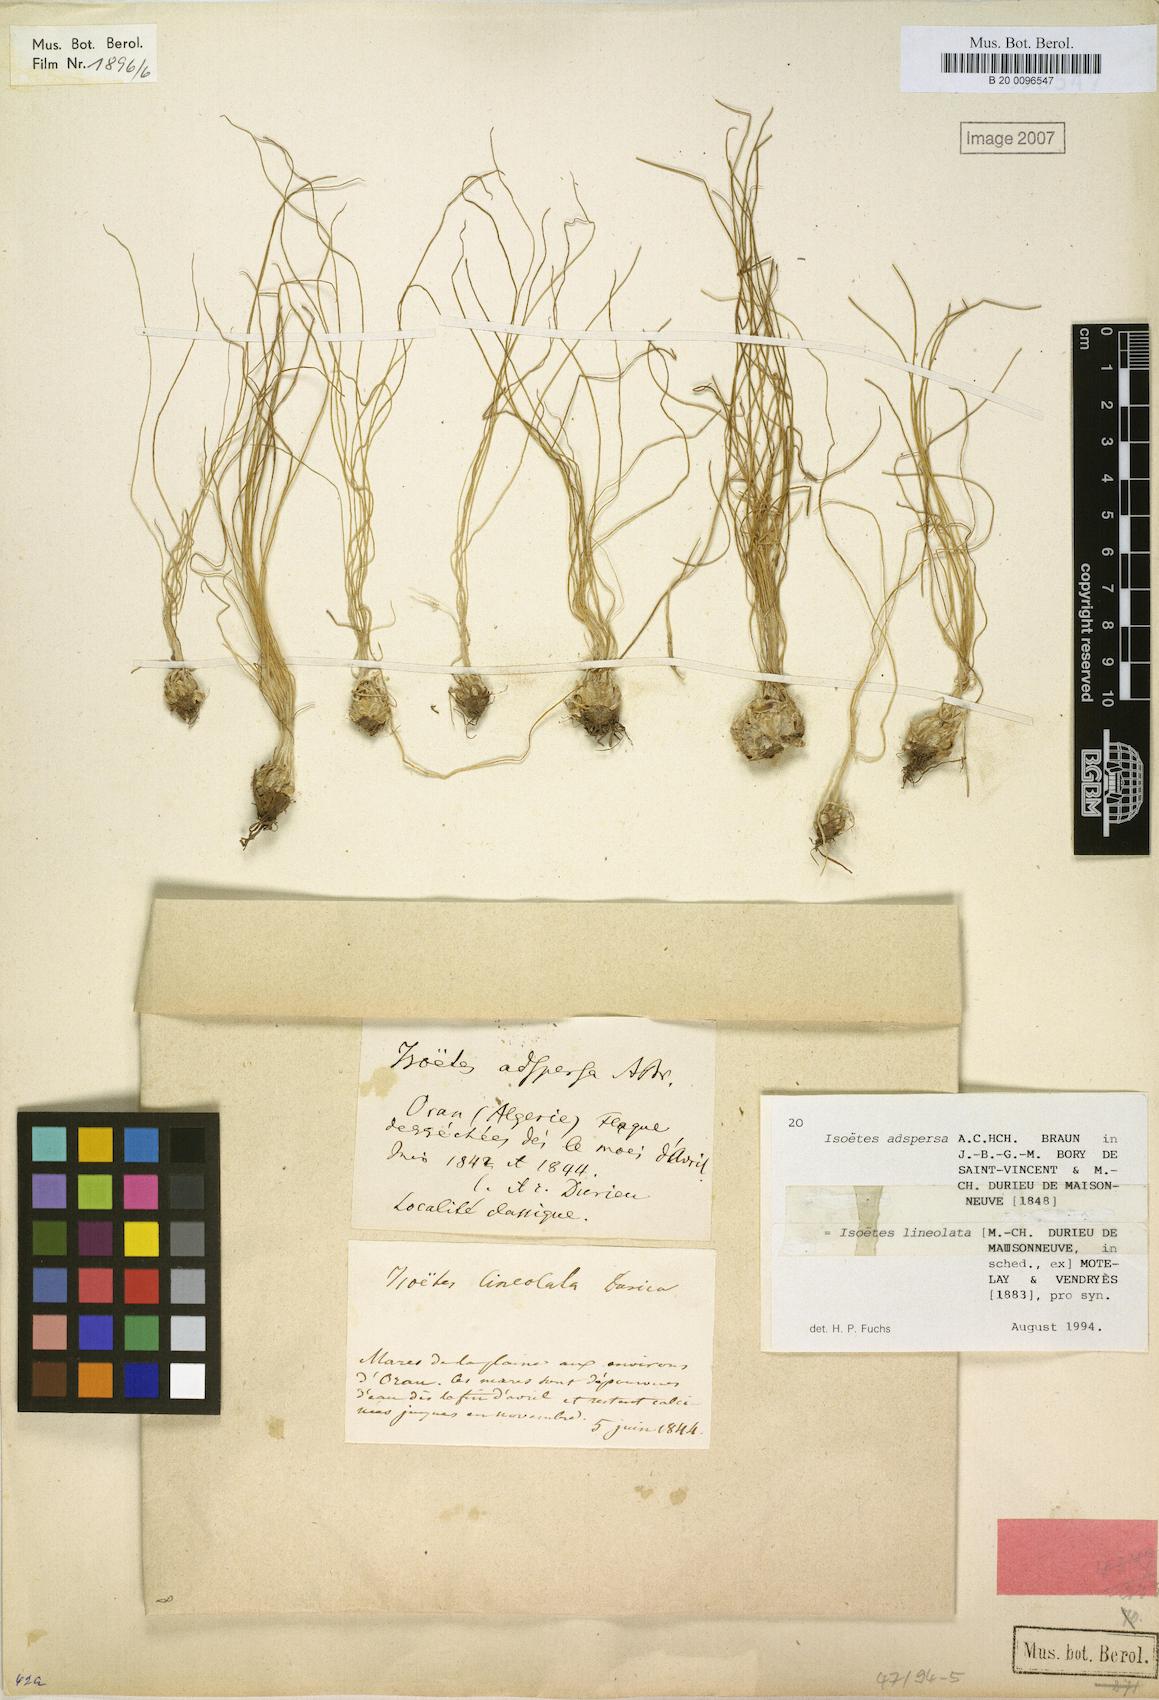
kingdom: Plantae
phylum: Tracheophyta
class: Lycopodiopsida
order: Isoetales
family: Isoetaceae
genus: Isoetes
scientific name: Isoetes longissima
